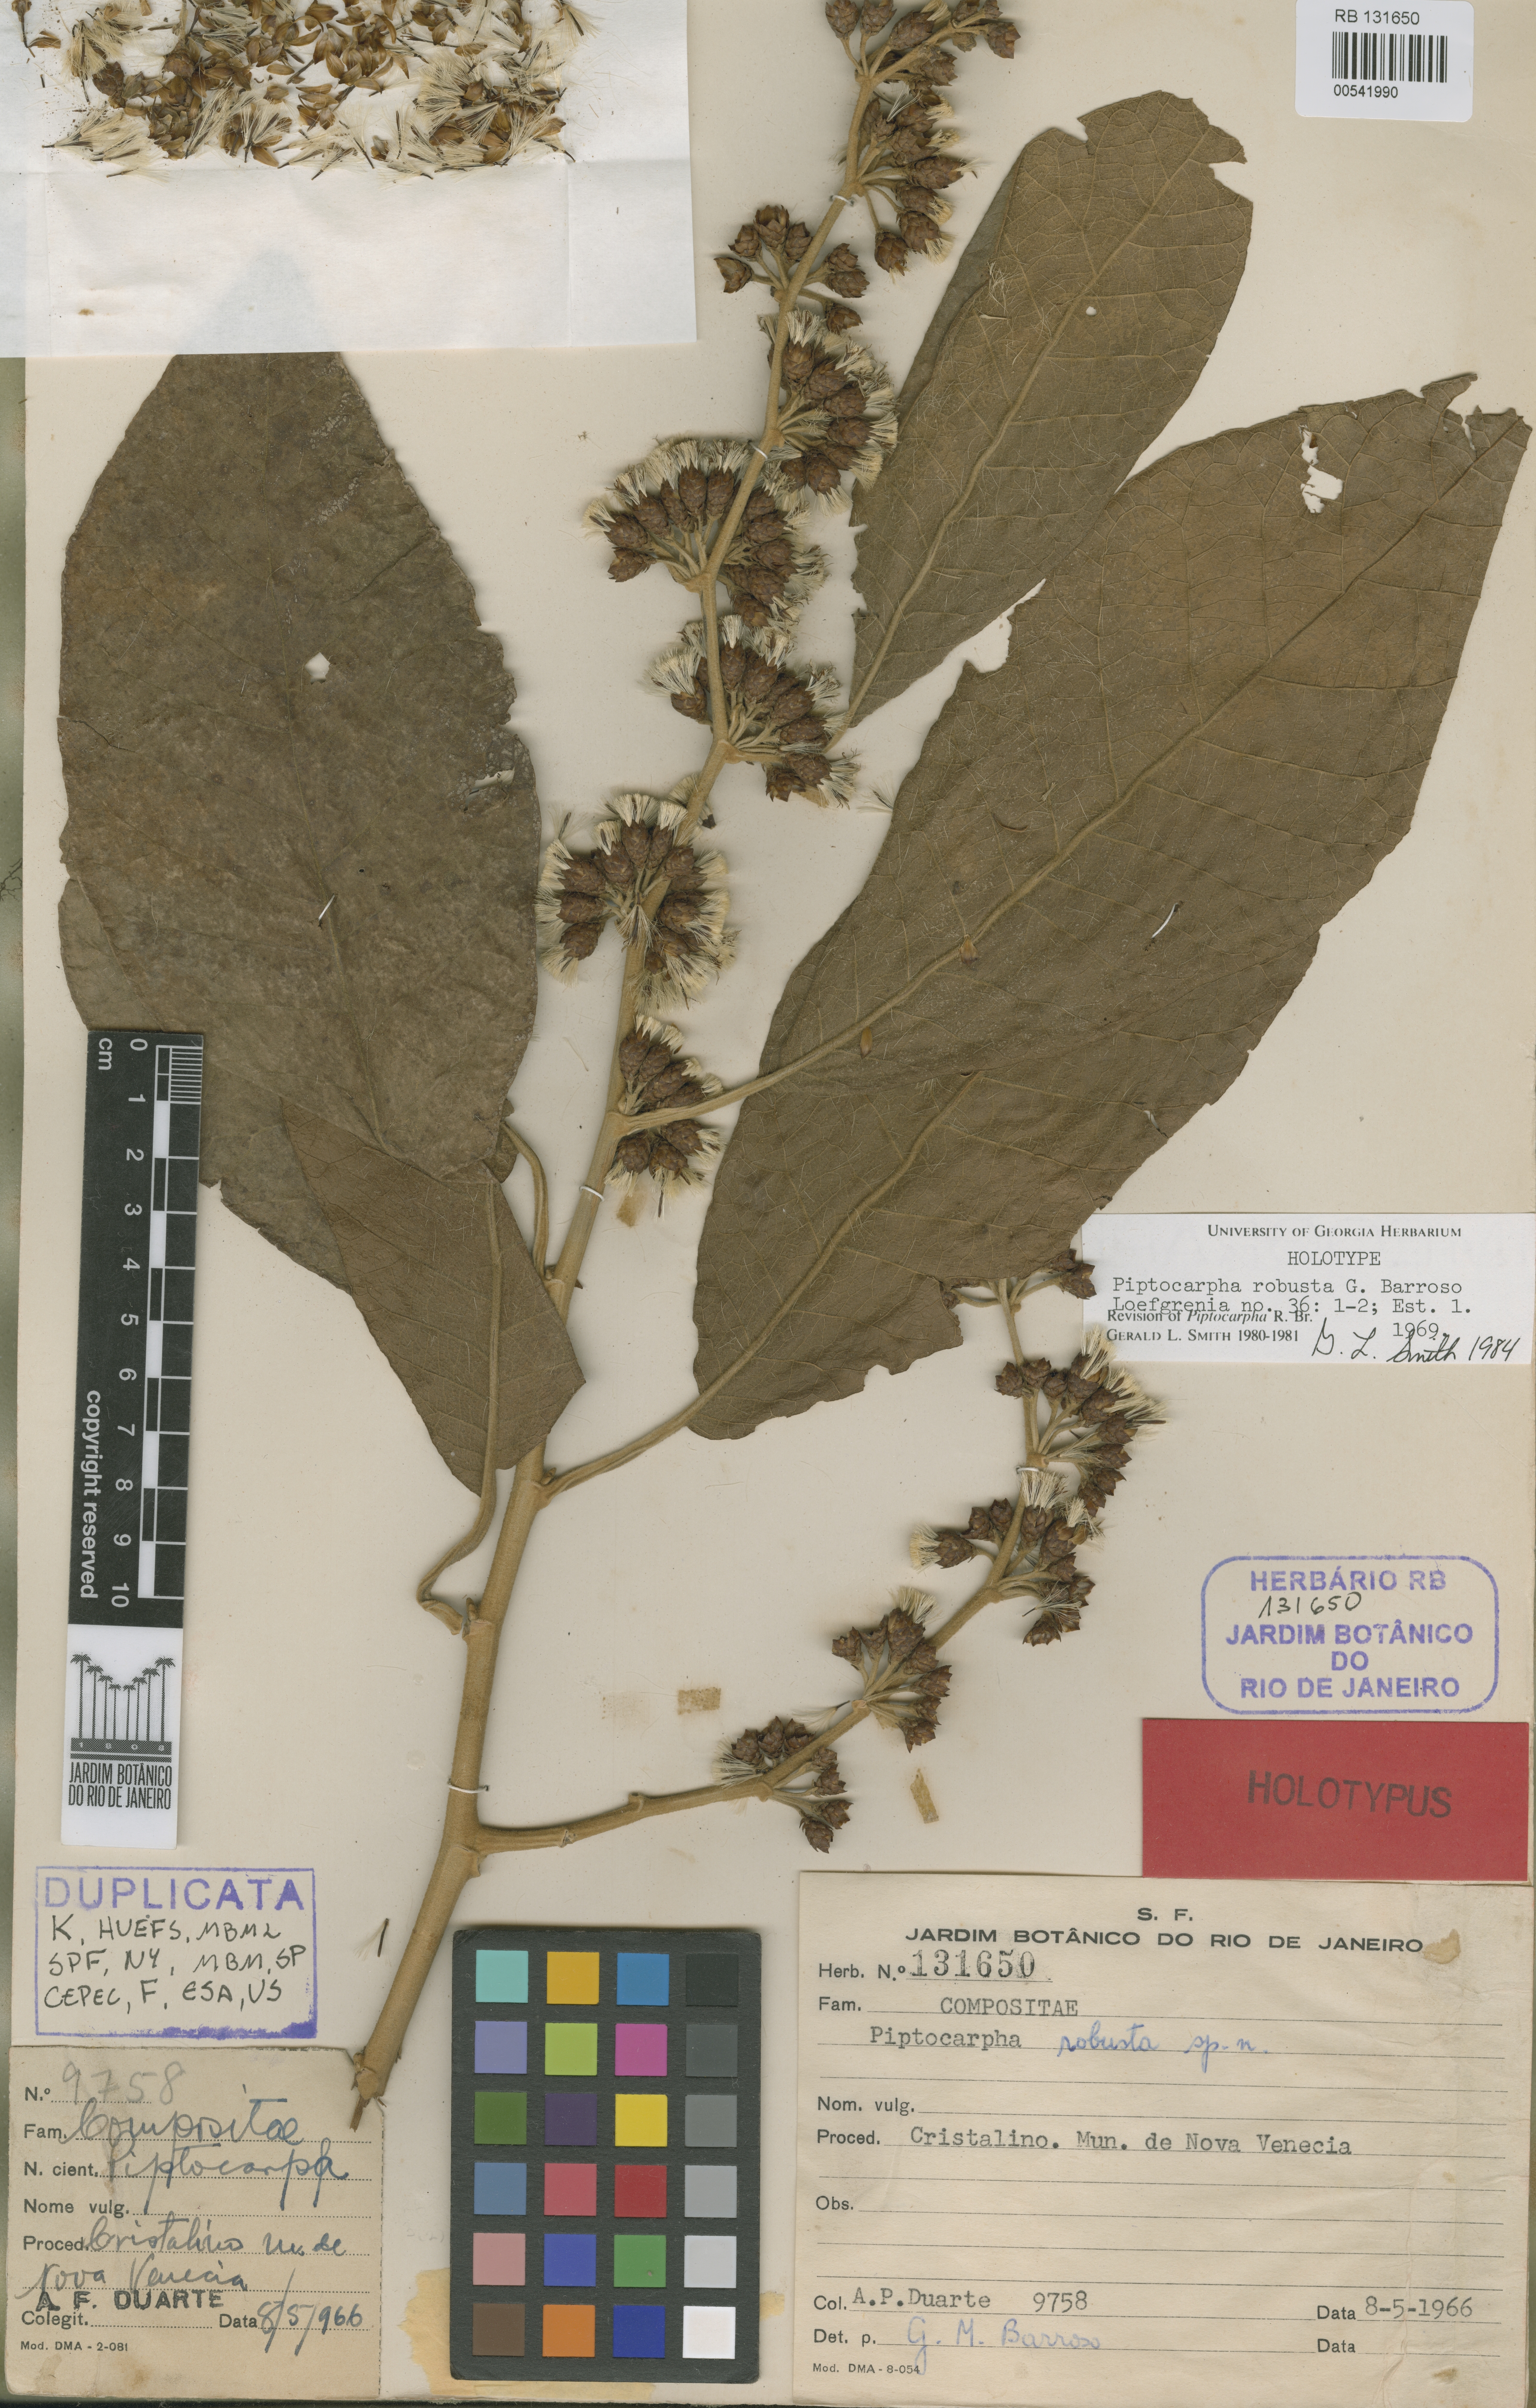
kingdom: Plantae
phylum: Tracheophyta
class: Magnoliopsida
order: Asterales
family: Asteraceae
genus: Piptocarpha
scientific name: Piptocarpha robusta
